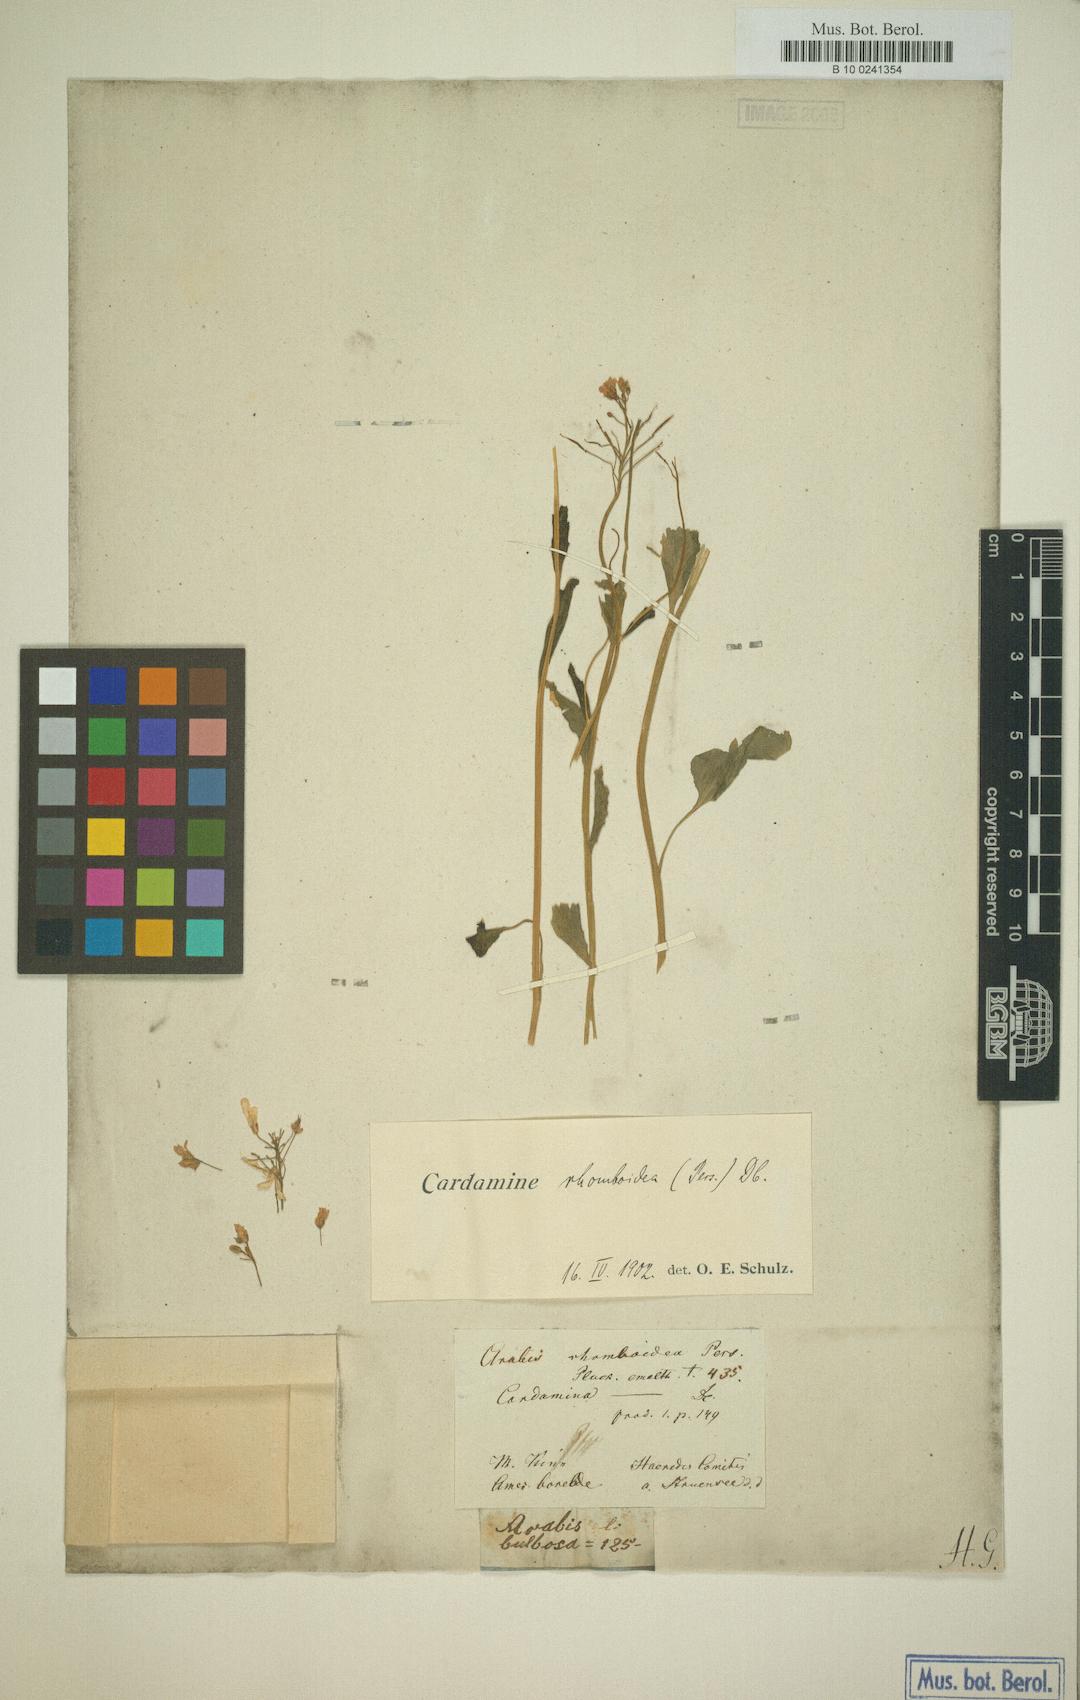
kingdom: Plantae
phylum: Tracheophyta
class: Magnoliopsida
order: Brassicales
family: Brassicaceae
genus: Cardamine
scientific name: Cardamine bulbosa
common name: Spring cress
